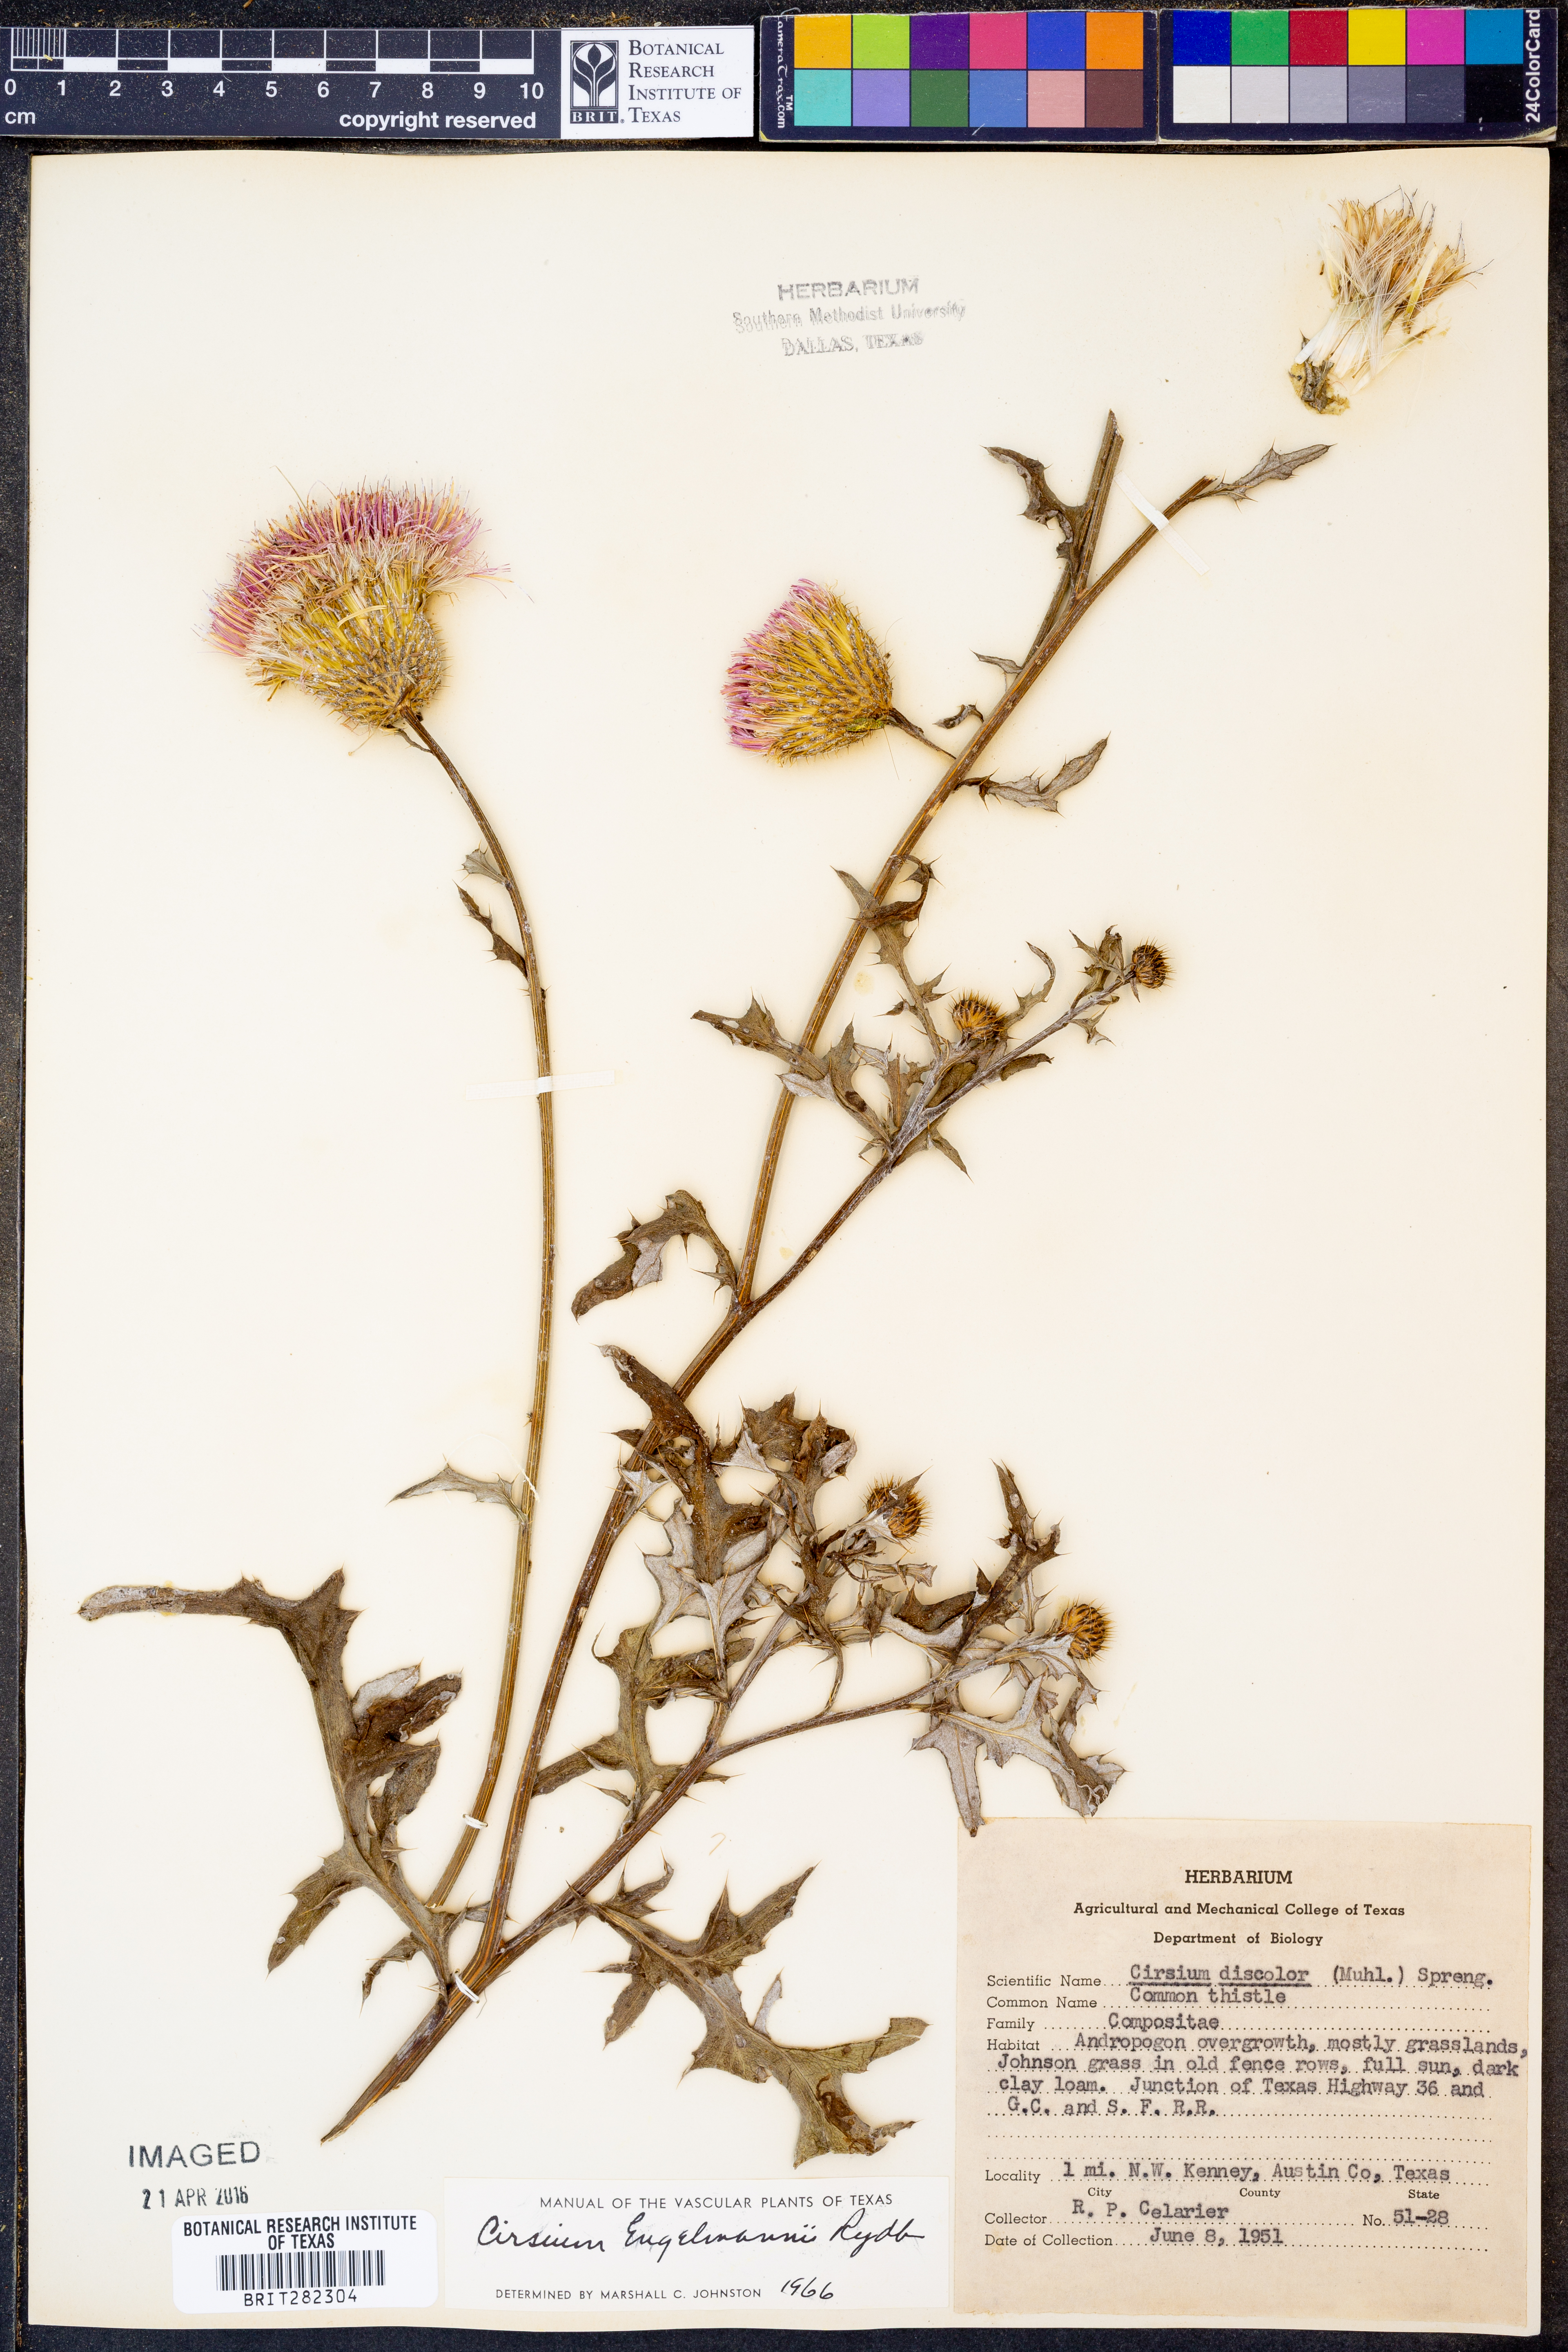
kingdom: Plantae
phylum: Tracheophyta
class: Magnoliopsida
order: Asterales
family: Asteraceae
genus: Cirsium
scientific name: Cirsium engelmannii
